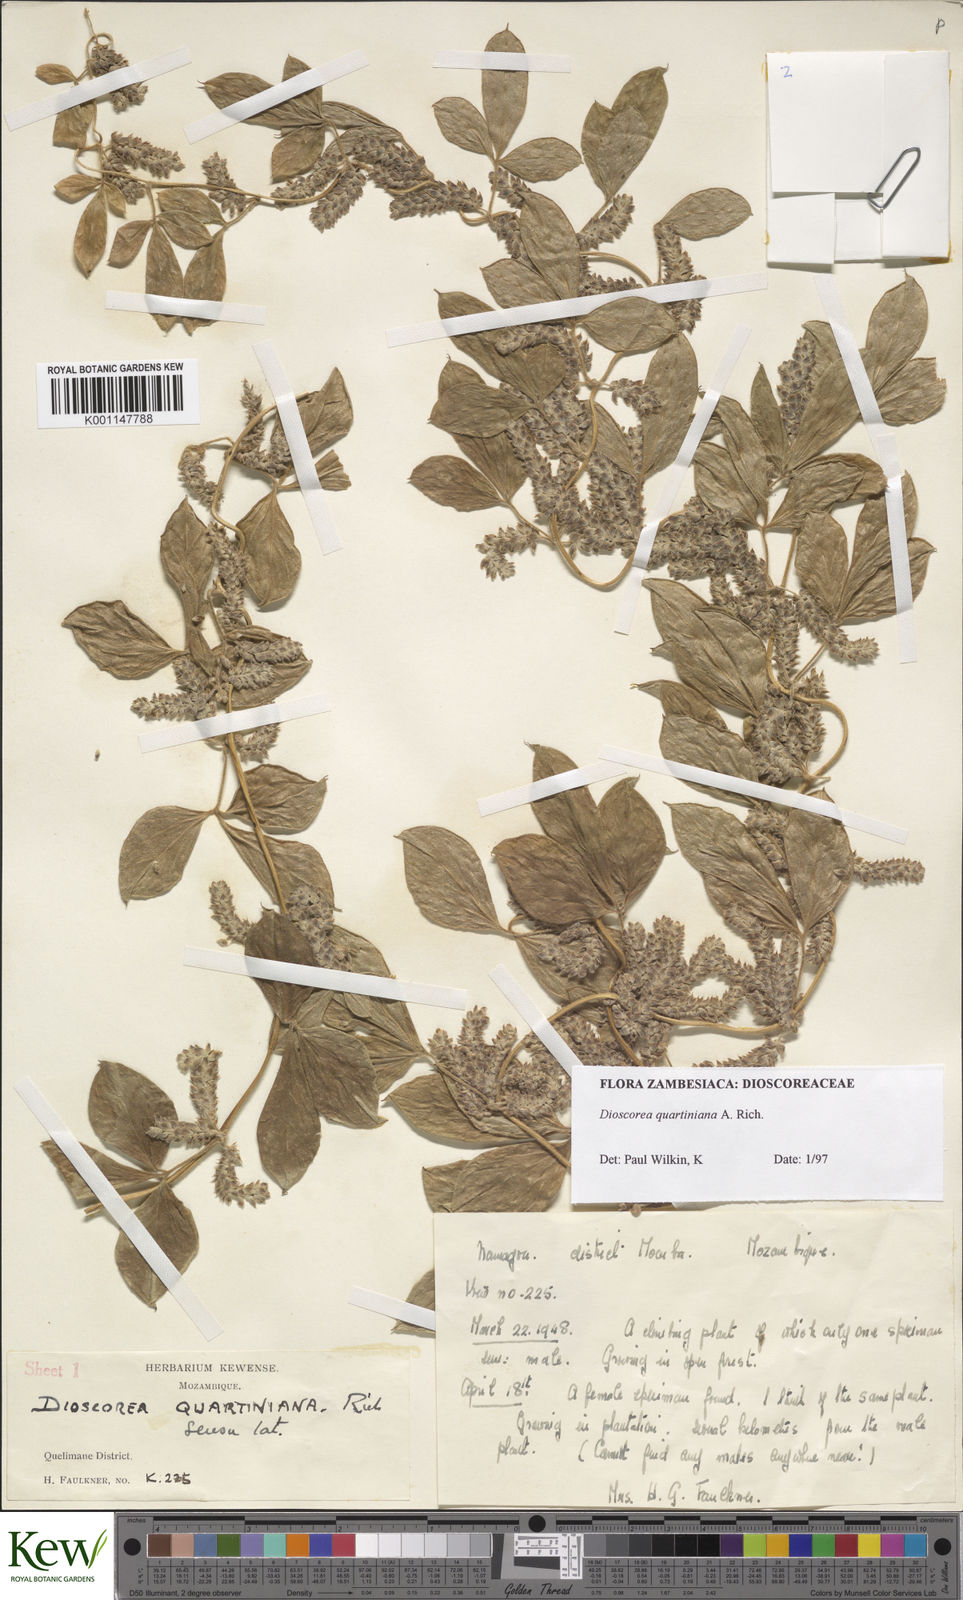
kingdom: Plantae
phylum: Tracheophyta
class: Liliopsida
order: Dioscoreales
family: Dioscoreaceae
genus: Dioscorea
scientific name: Dioscorea quartiniana
